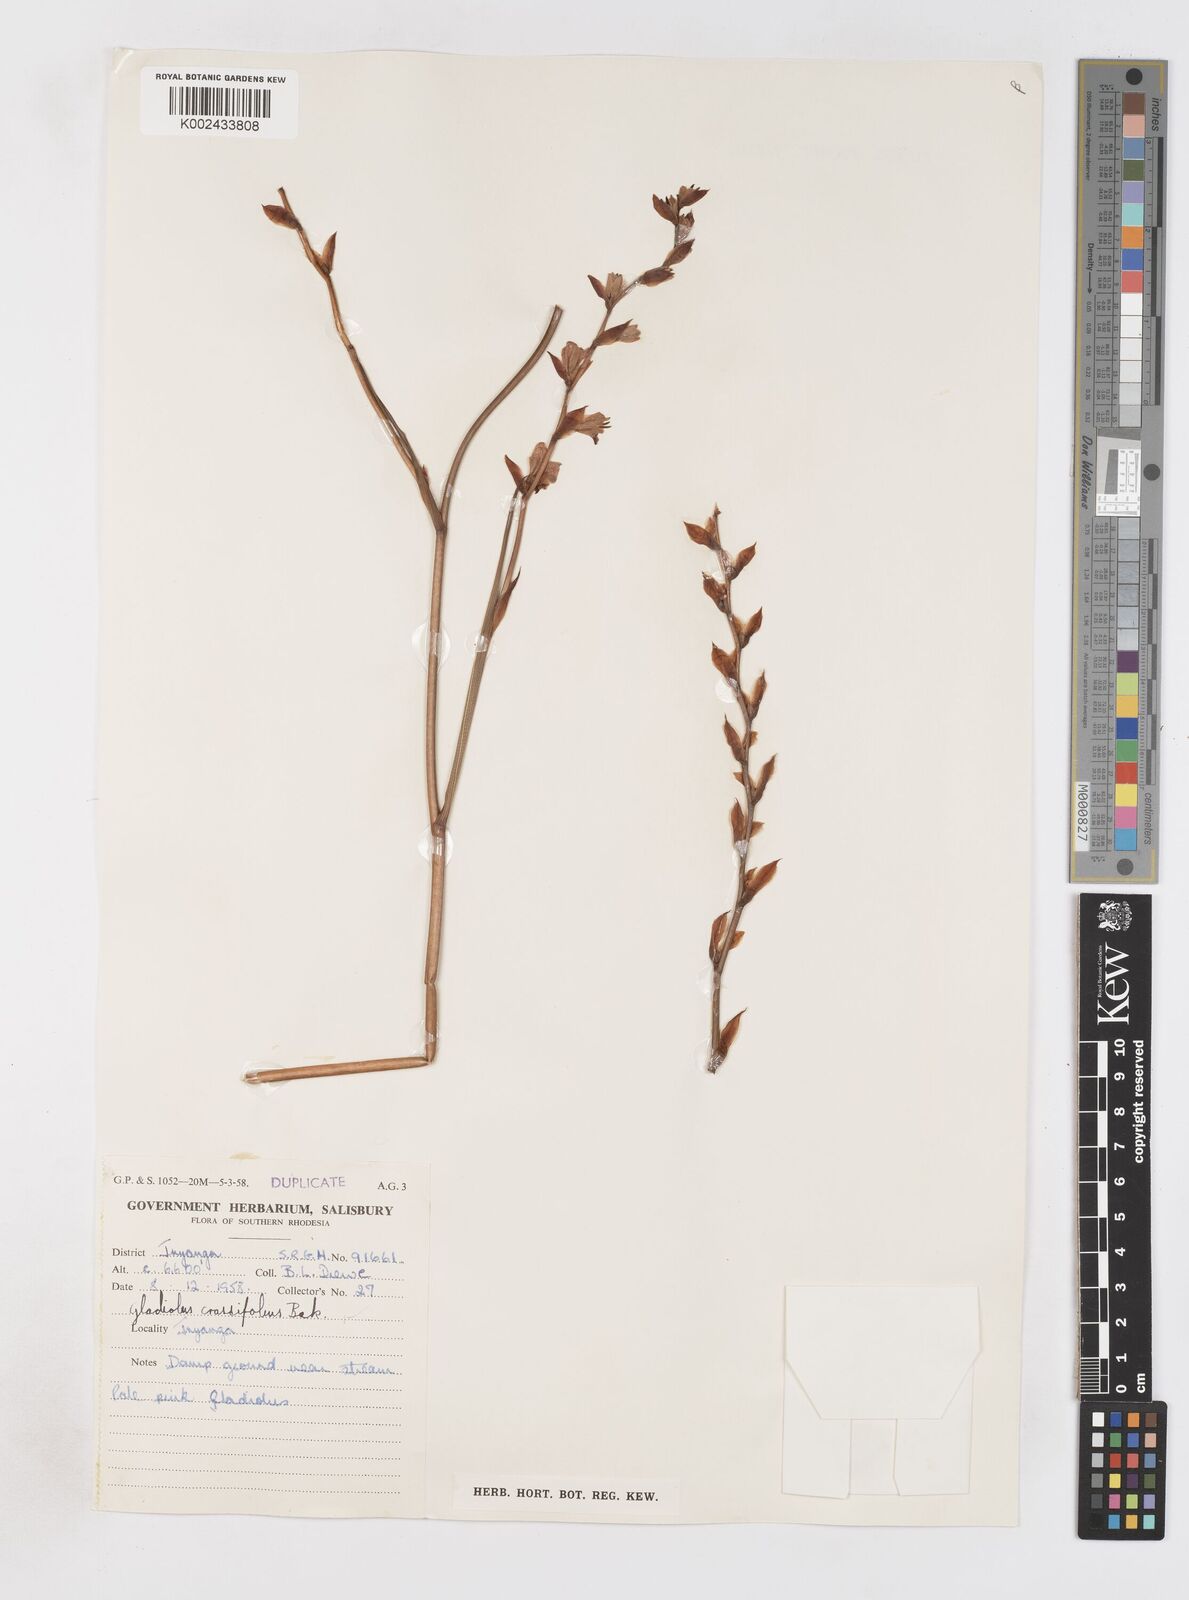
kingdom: Plantae
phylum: Tracheophyta
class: Liliopsida
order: Asparagales
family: Iridaceae
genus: Gladiolus
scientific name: Gladiolus crassifolius
